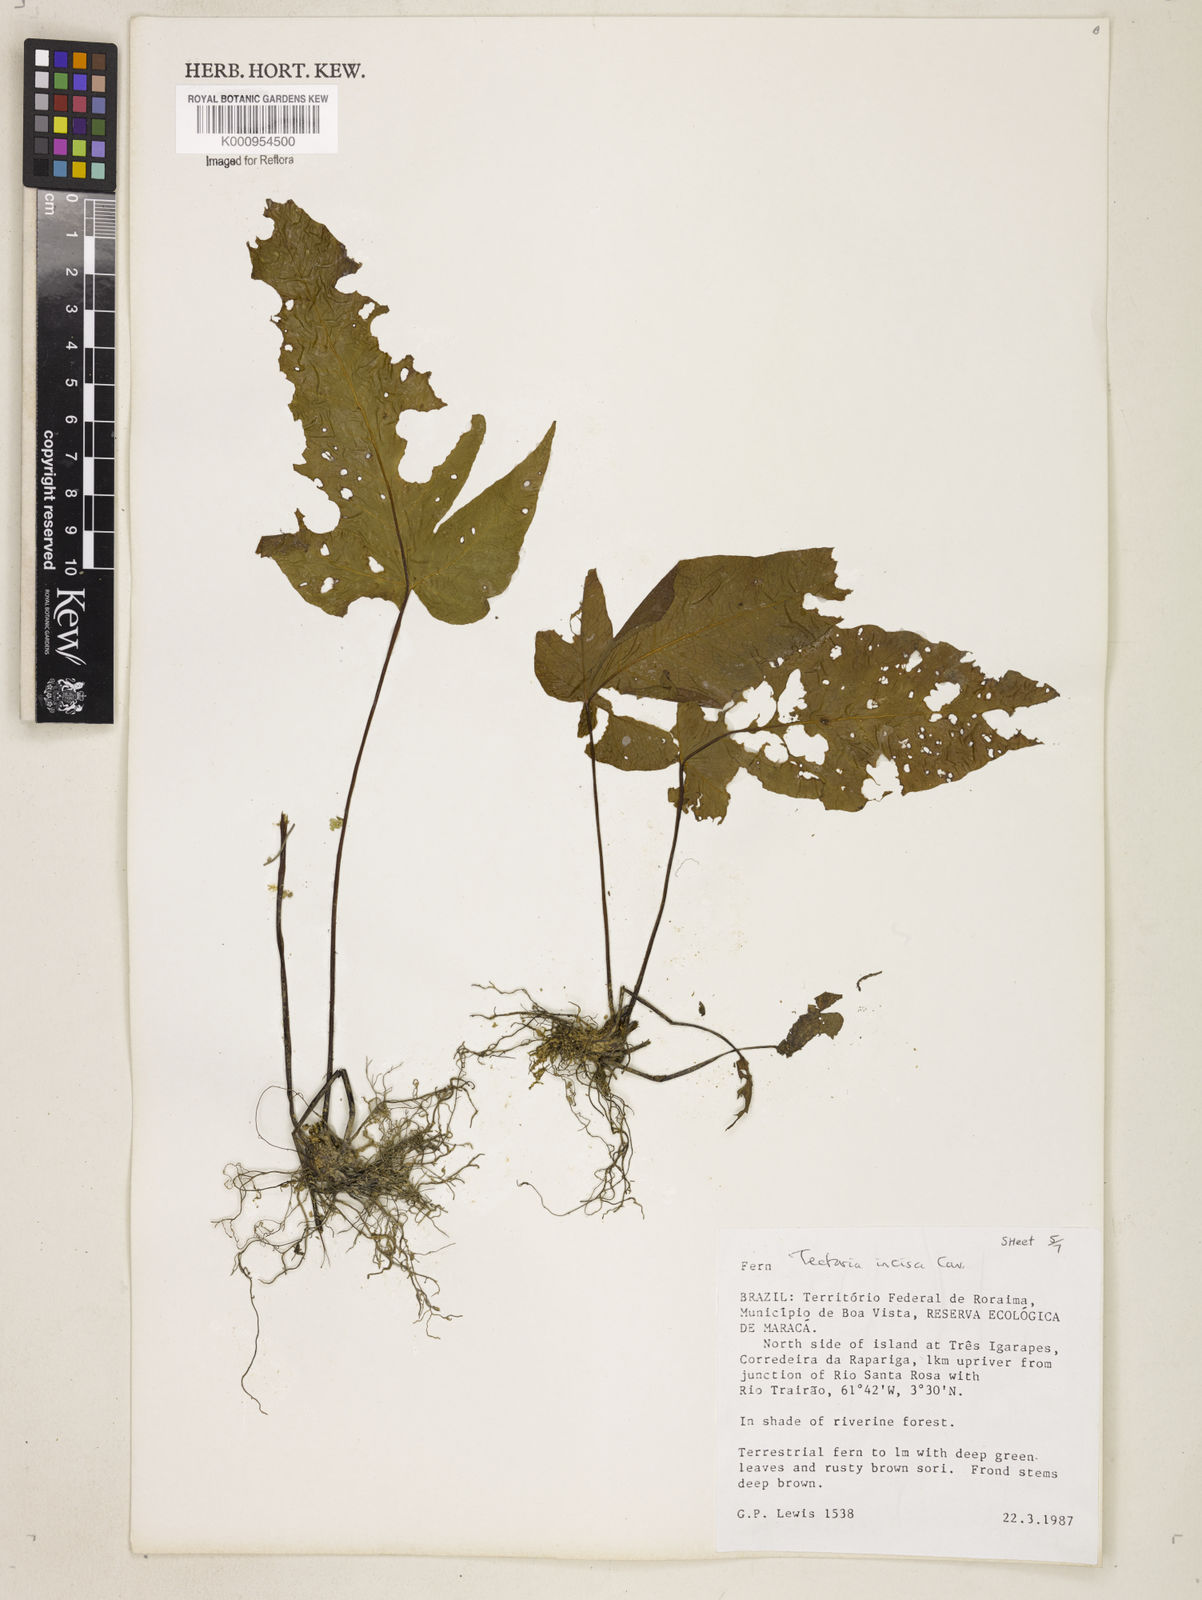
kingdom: Plantae
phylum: Tracheophyta
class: Polypodiopsida
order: Polypodiales
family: Tectariaceae
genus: Tectaria
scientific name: Tectaria incisa
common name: Incised halberd fern
